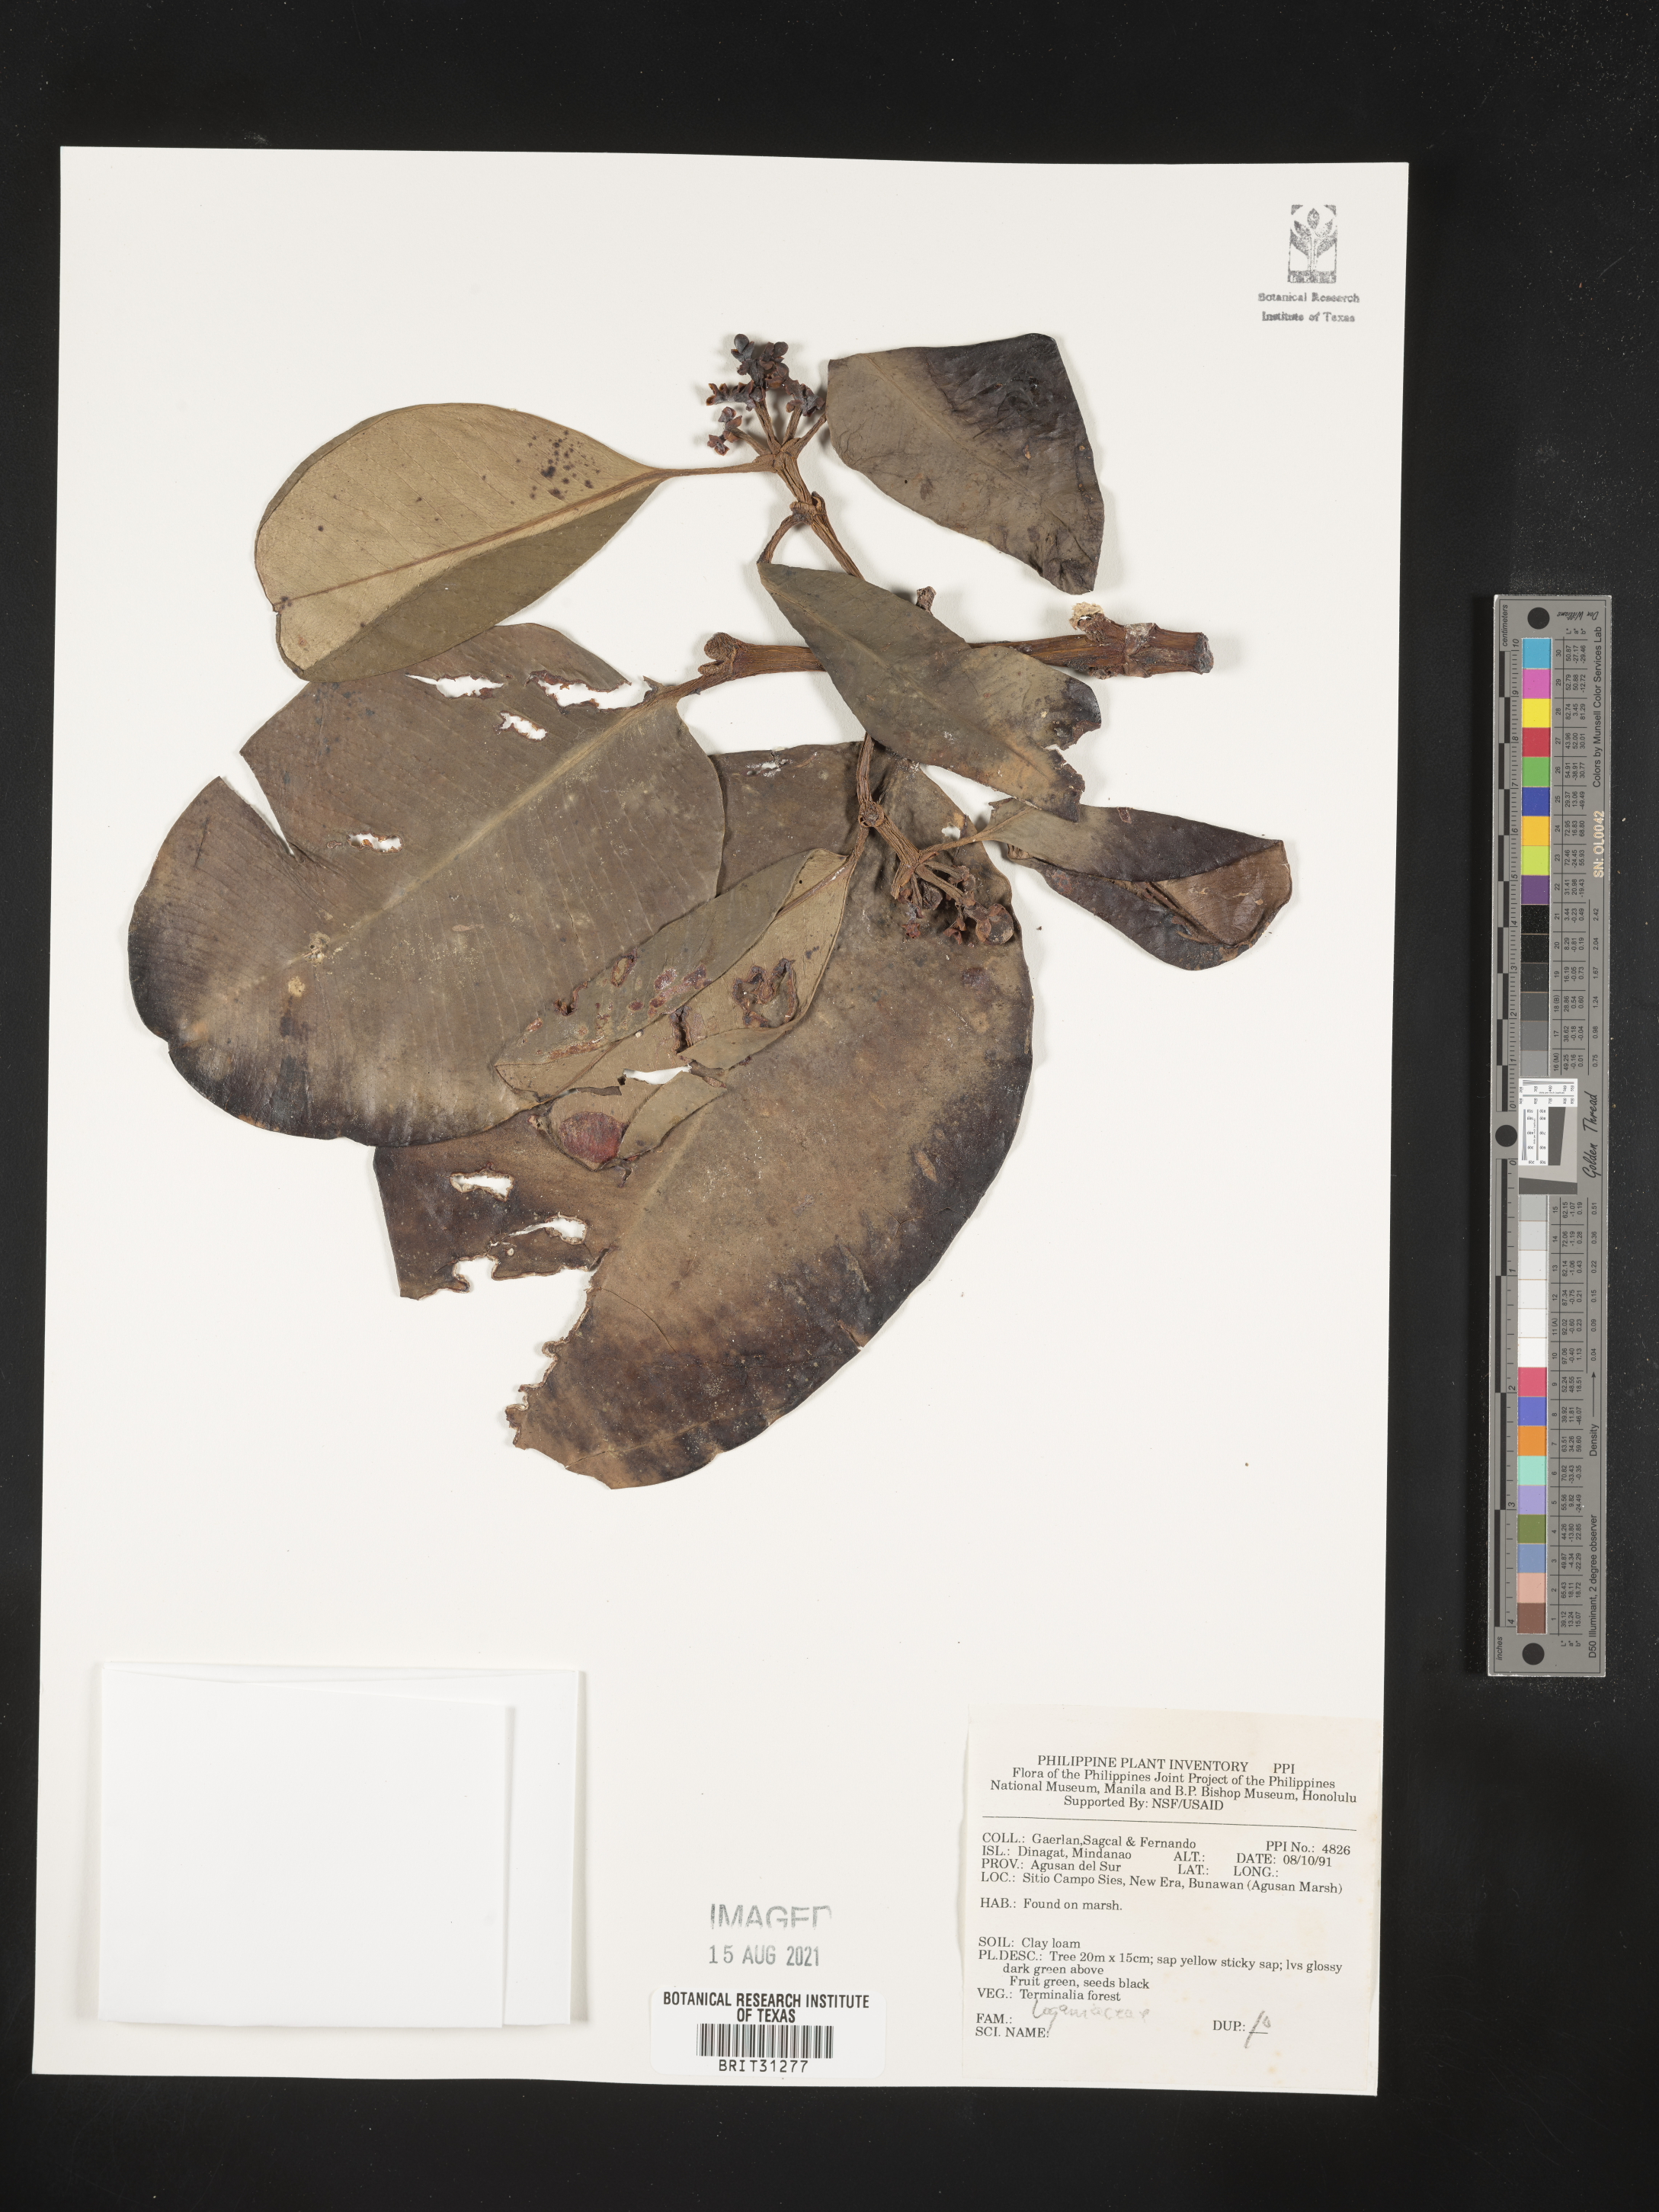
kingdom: Plantae
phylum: Tracheophyta
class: Magnoliopsida
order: Gentianales
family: Loganiaceae
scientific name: Loganiaceae
